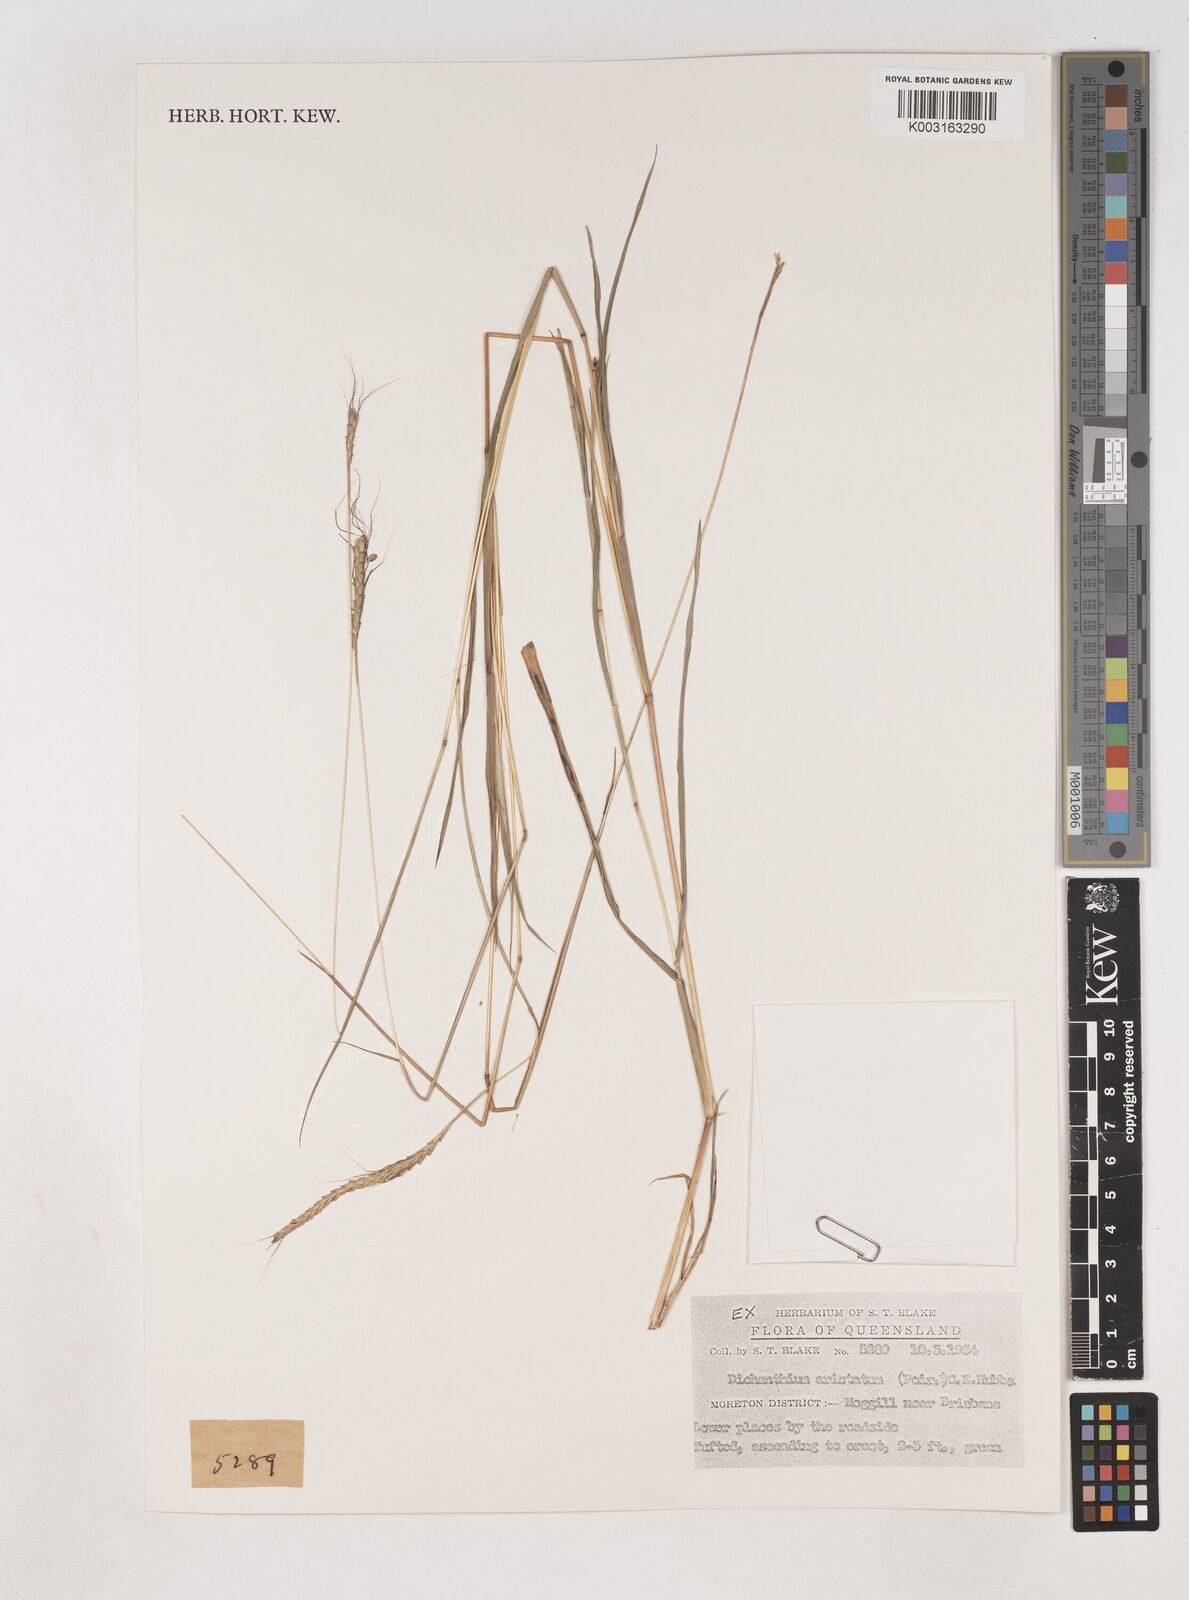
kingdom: Plantae
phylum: Tracheophyta
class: Liliopsida
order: Poales
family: Poaceae
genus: Dichanthium
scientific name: Dichanthium aristatum
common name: Angleton bluestem
